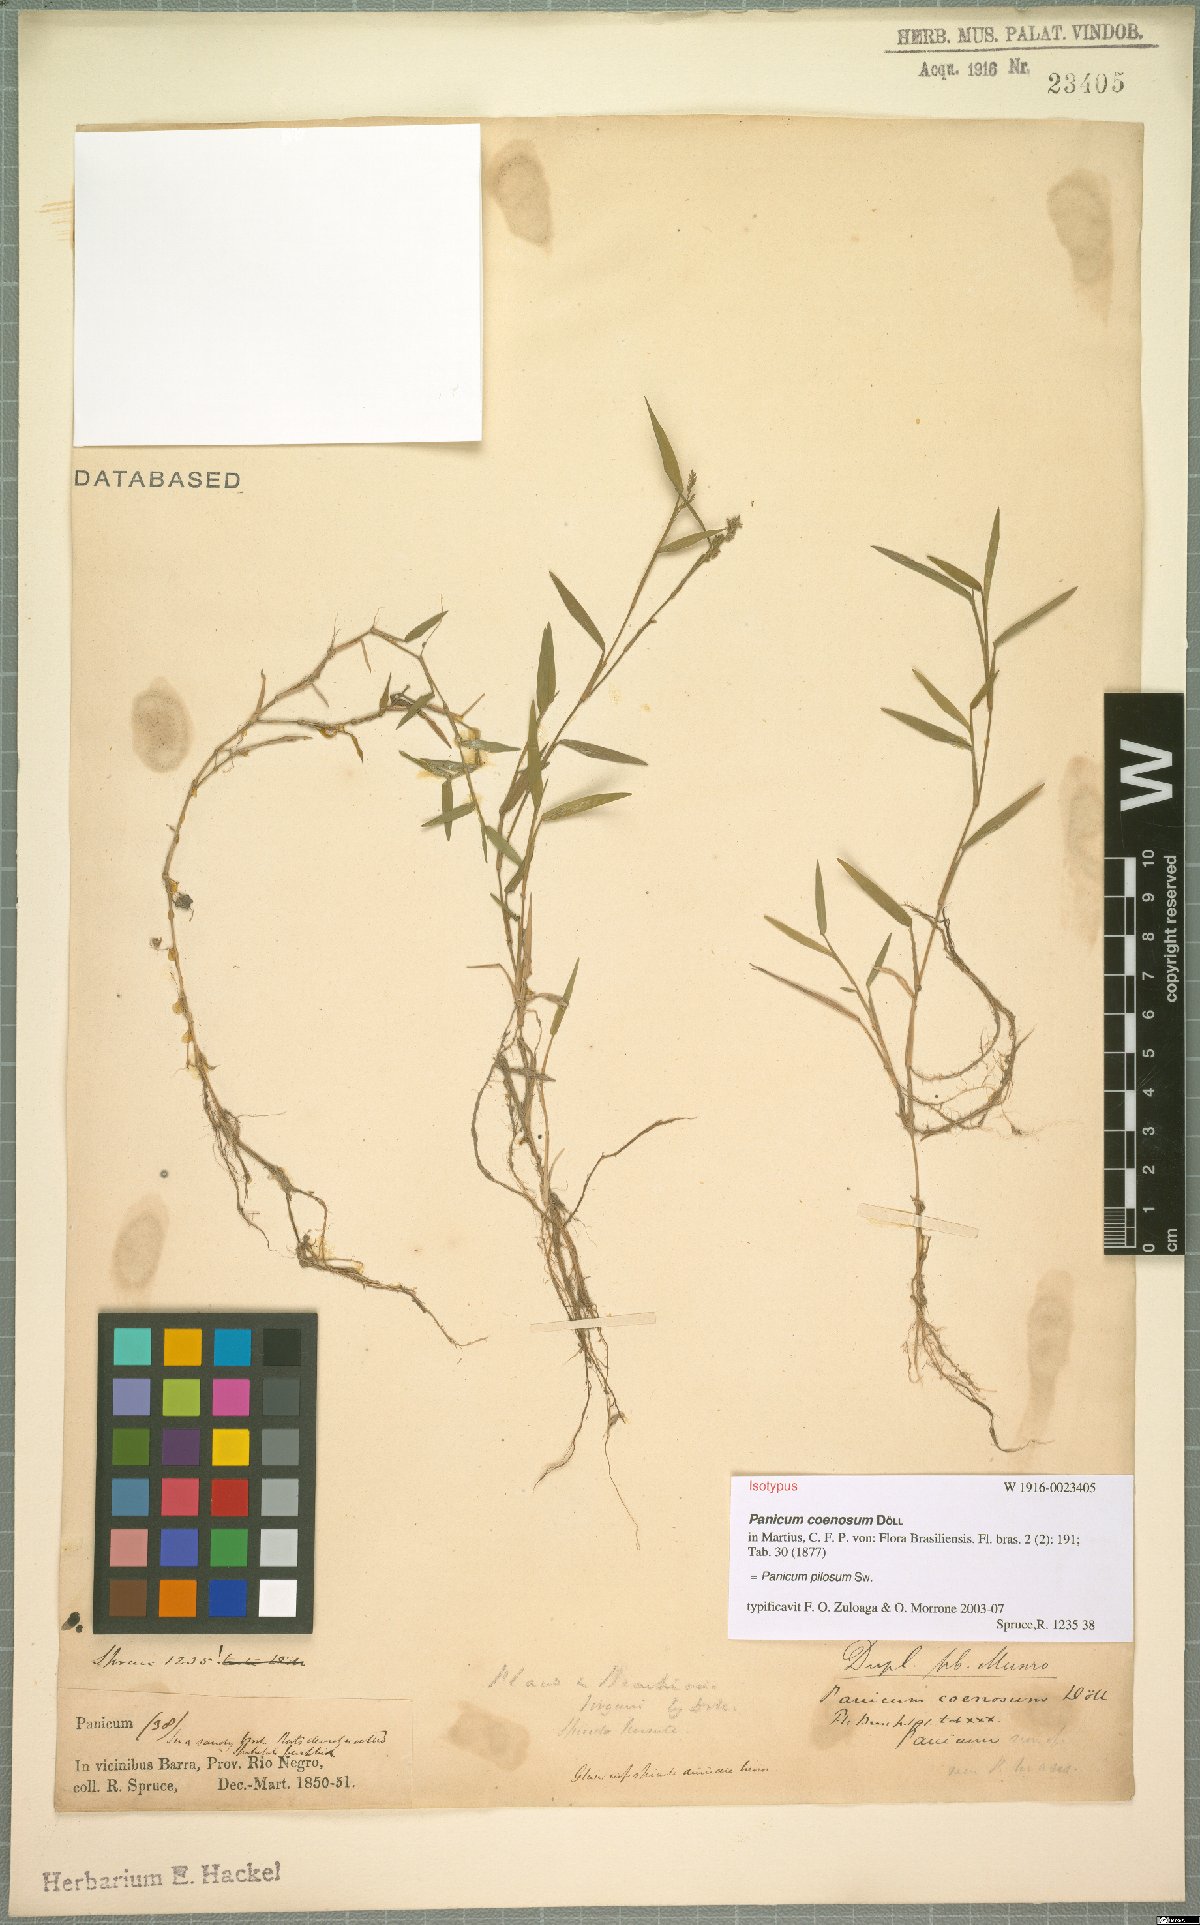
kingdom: Plantae
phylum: Tracheophyta
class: Liliopsida
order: Poales
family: Poaceae
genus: Rugoloa
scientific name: Rugoloa pilosa
